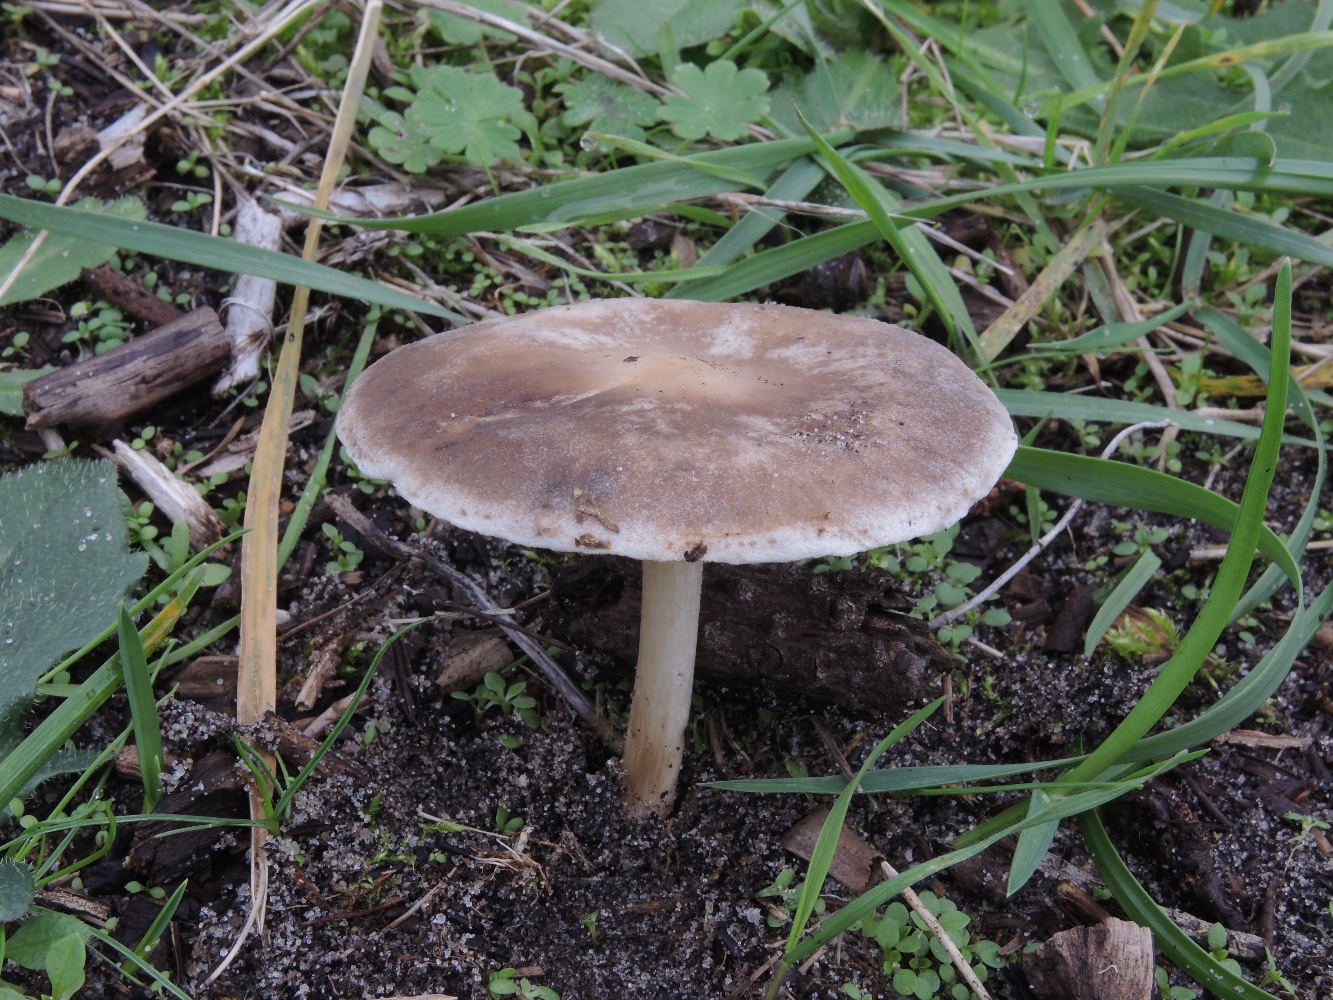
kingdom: Fungi
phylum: Basidiomycota
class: Agaricomycetes
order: Agaricales
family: Tricholomataceae
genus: Melanoleuca
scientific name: Melanoleuca exscissa
